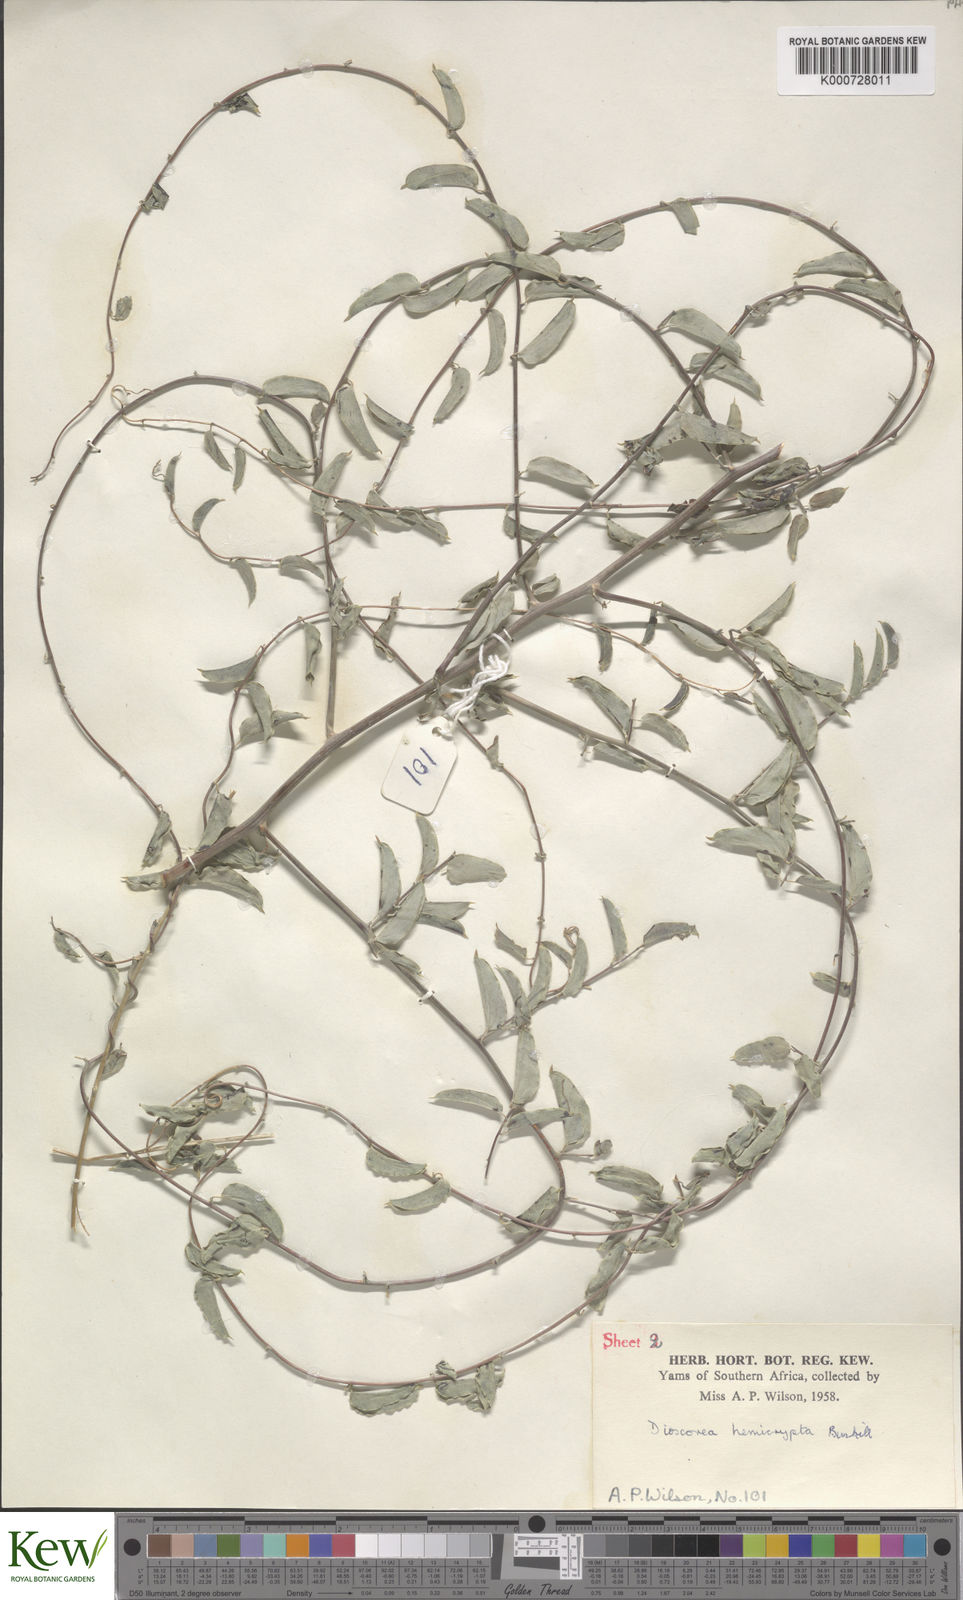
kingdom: Plantae
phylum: Tracheophyta
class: Liliopsida
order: Dioscoreales
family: Dioscoreaceae
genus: Dioscorea
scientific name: Dioscorea hemicrypta
